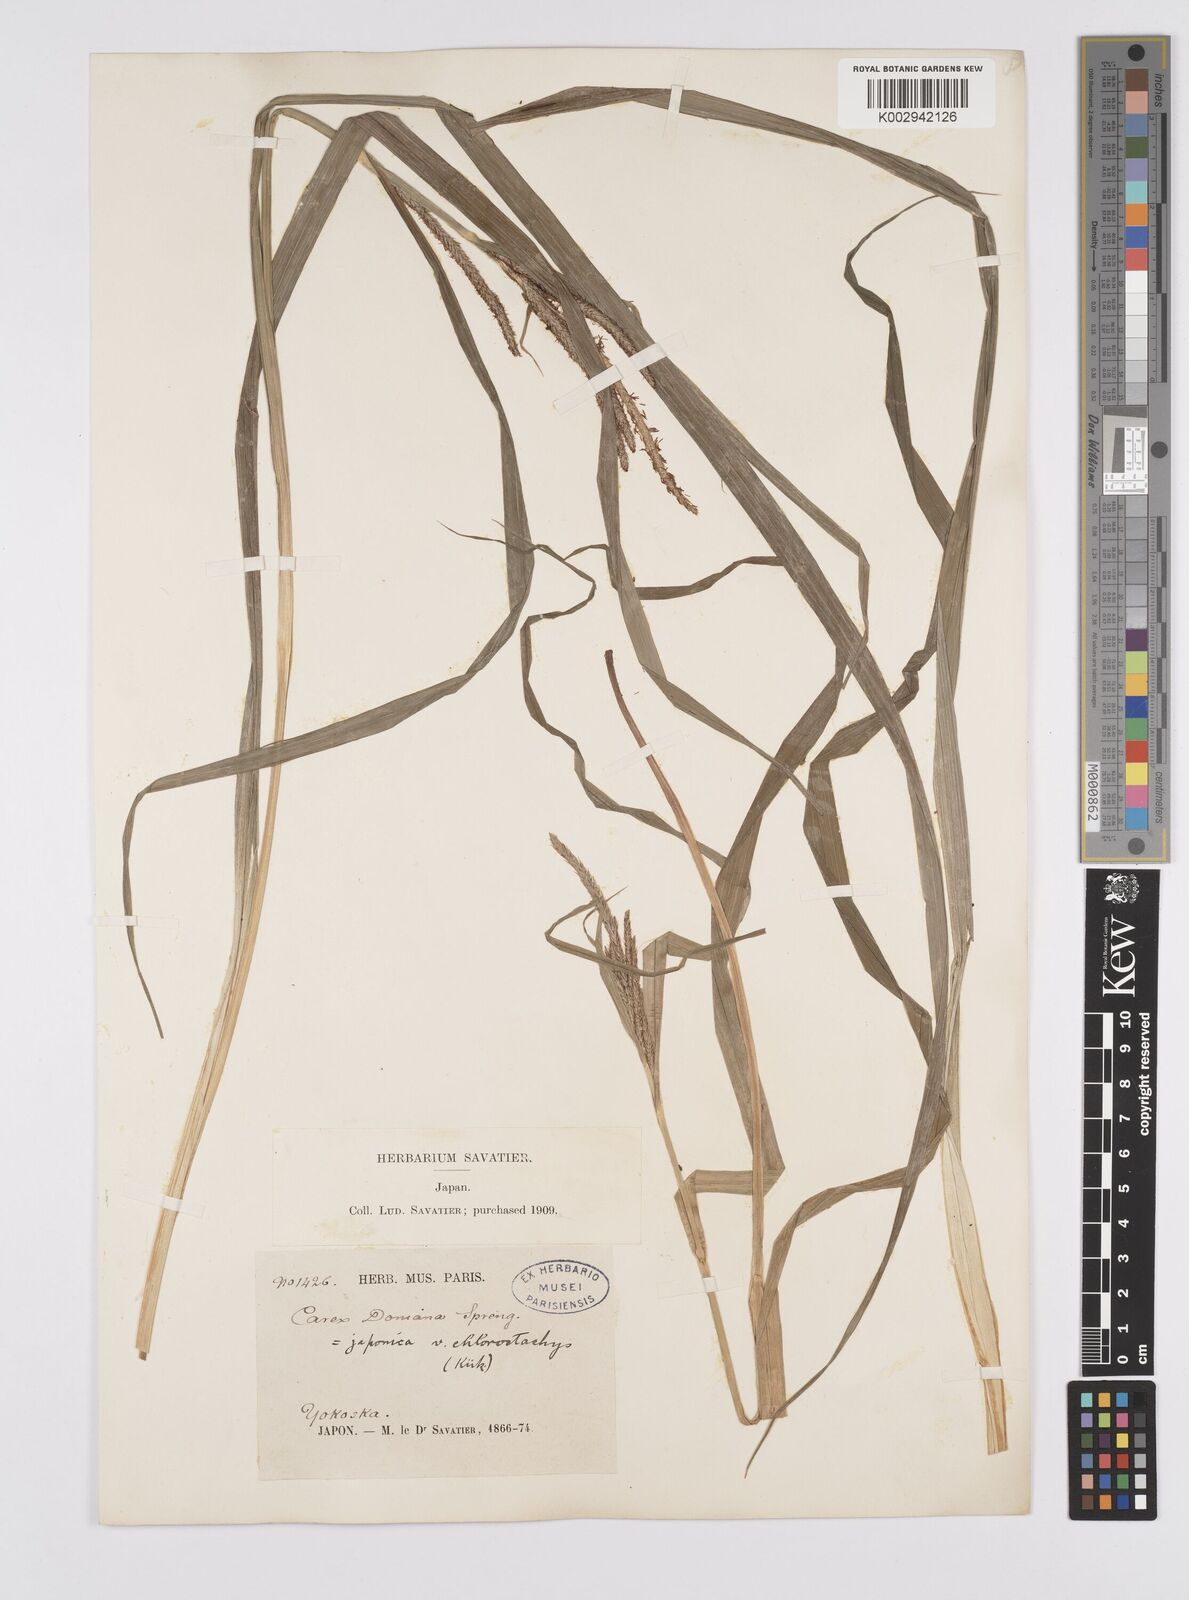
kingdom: Plantae
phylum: Tracheophyta
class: Liliopsida
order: Poales
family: Cyperaceae
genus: Carex
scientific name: Carex japonica
